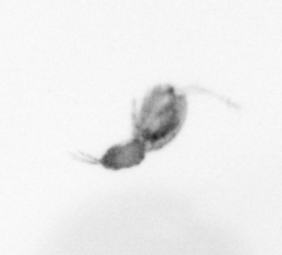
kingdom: Animalia
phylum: Arthropoda
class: Copepoda
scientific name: Copepoda
